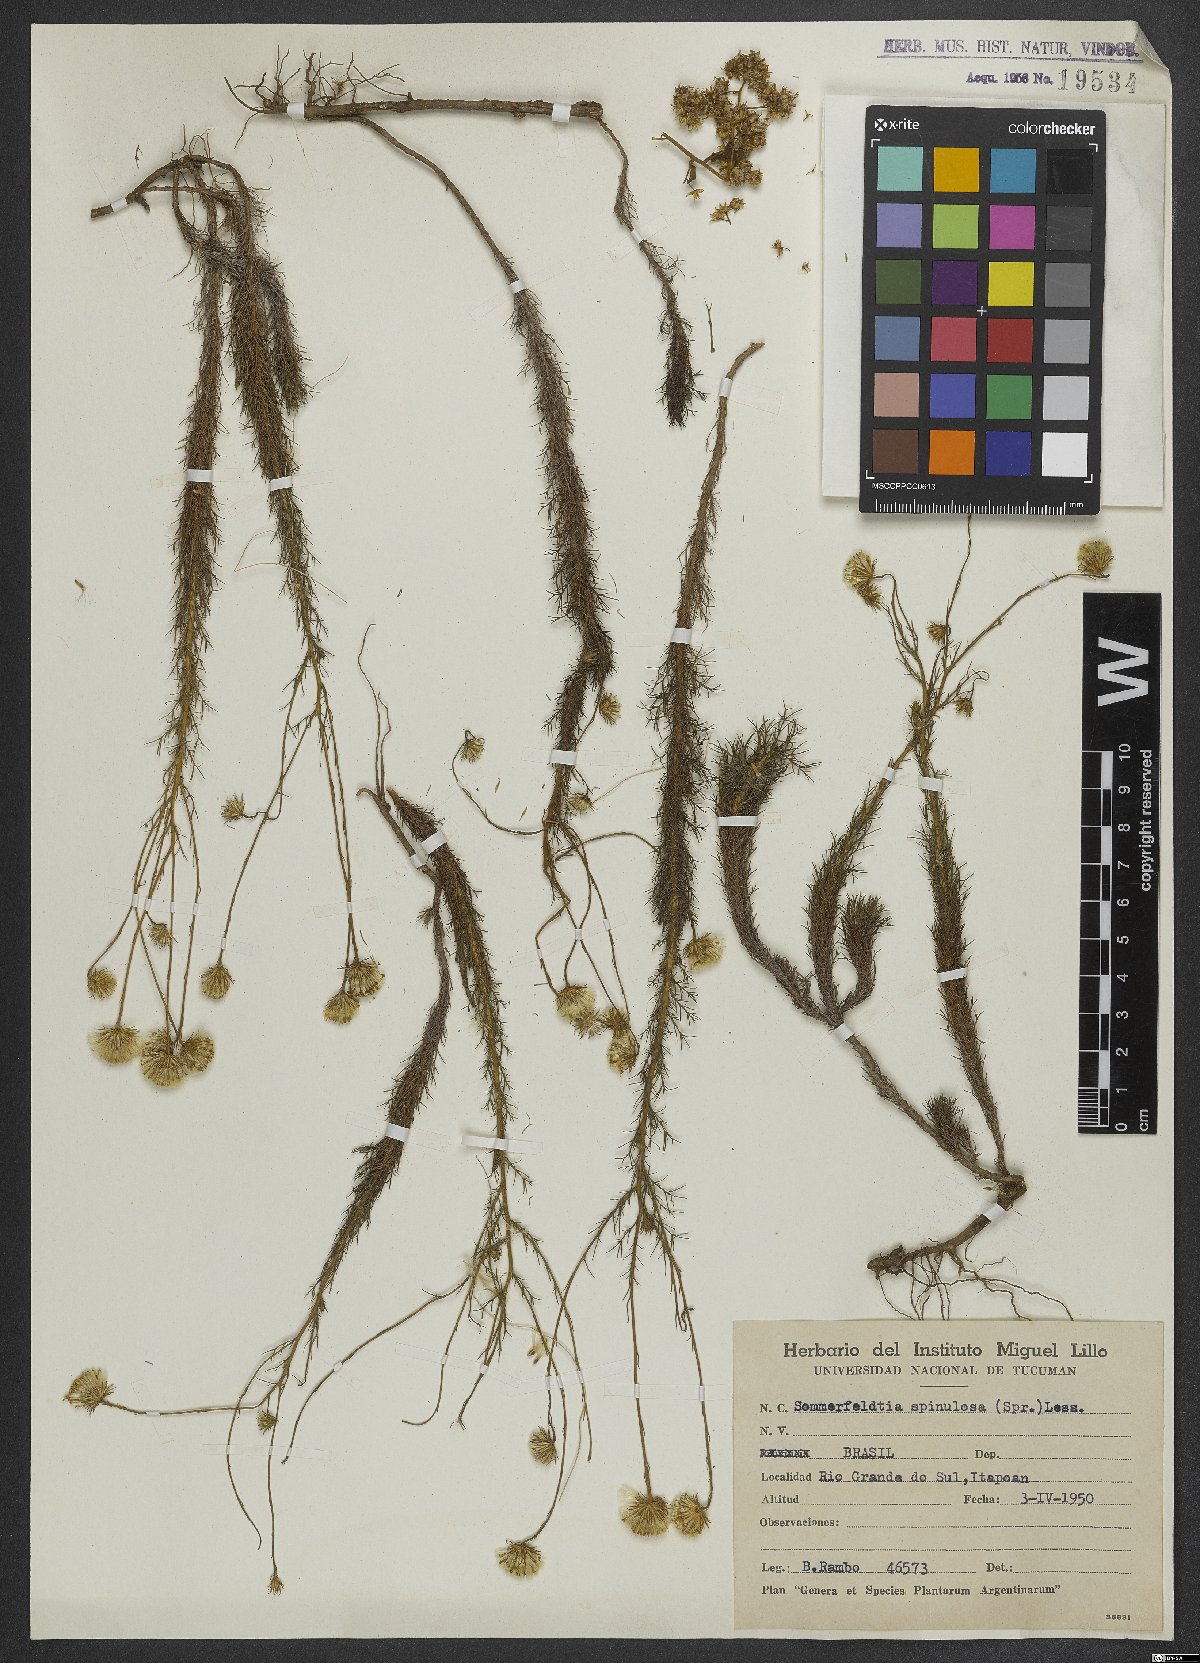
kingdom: Plantae
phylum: Tracheophyta
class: Magnoliopsida
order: Asterales
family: Asteraceae
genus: Sommerfeltia
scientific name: Sommerfeltia spinulosa
